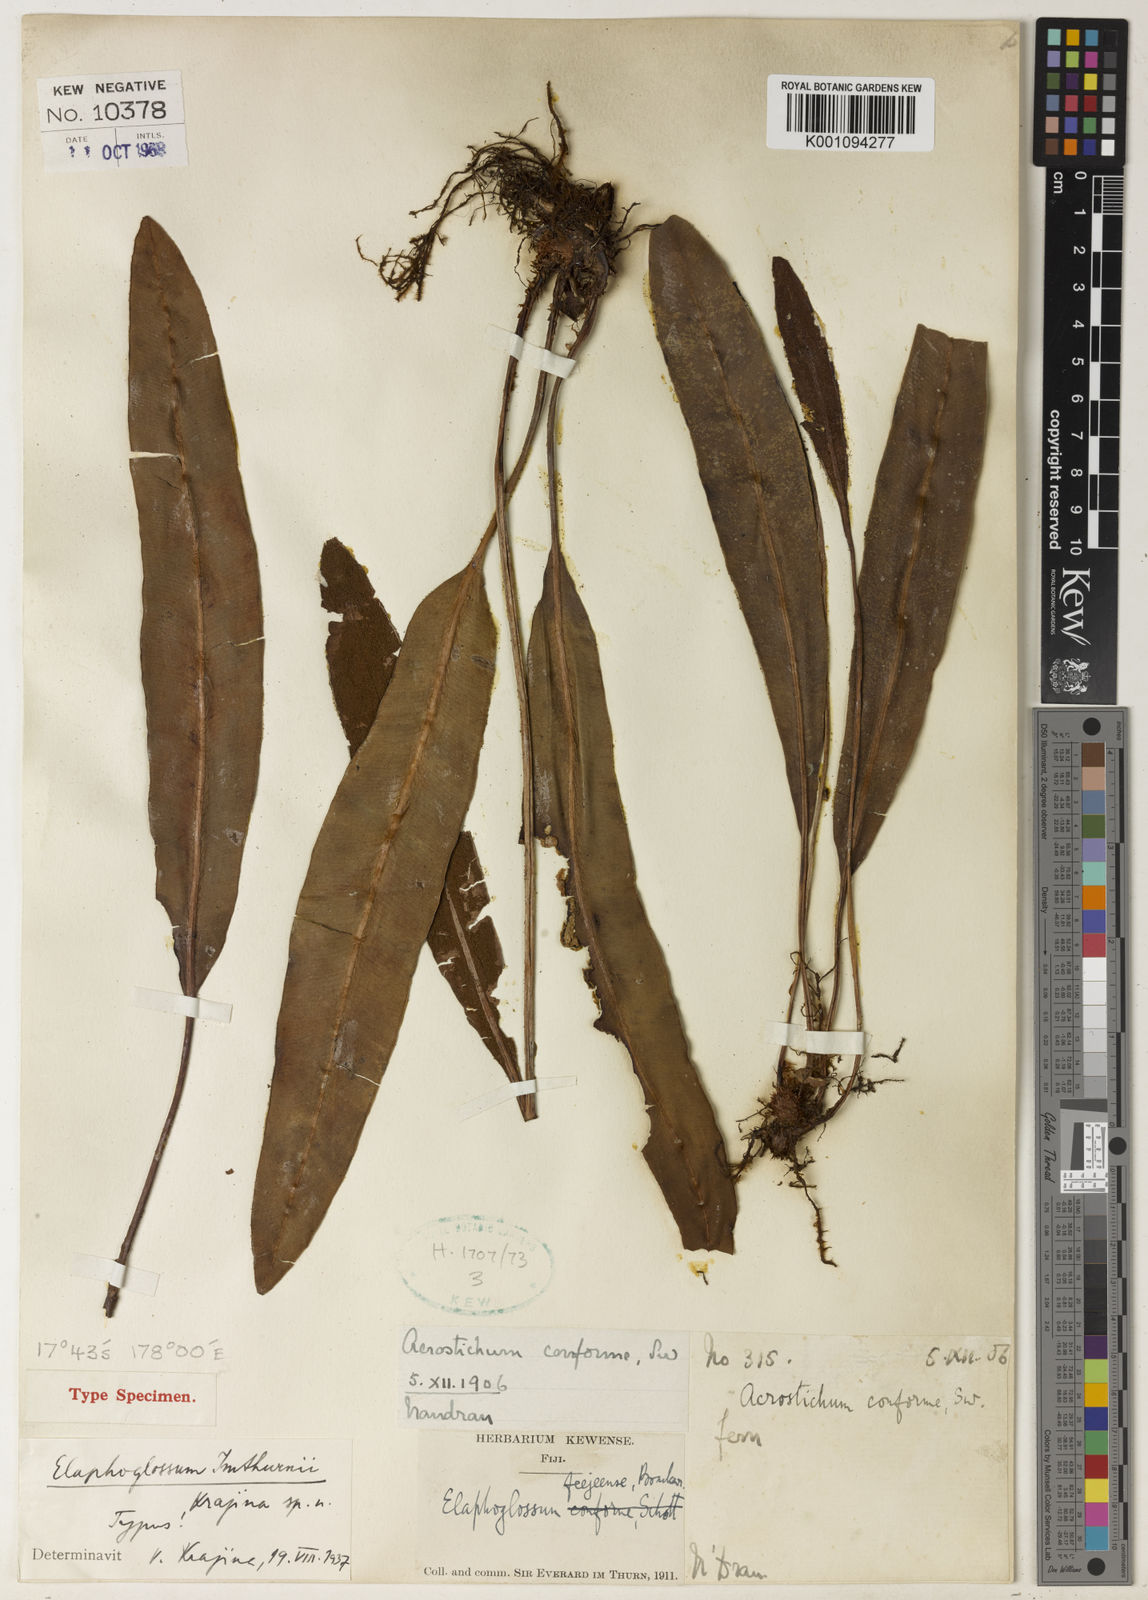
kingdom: Plantae
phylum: Tracheophyta
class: Polypodiopsida
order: Polypodiales
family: Dryopteridaceae
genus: Elaphoglossum
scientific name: Elaphoglossum imthurnii
